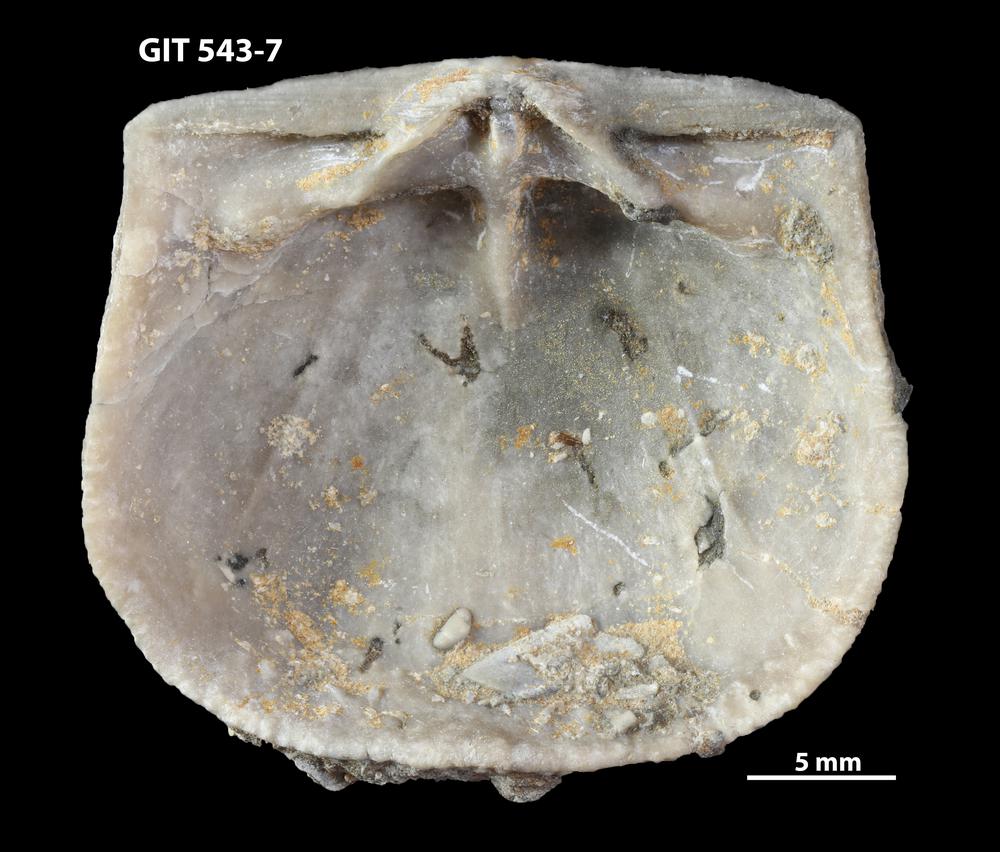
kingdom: Animalia
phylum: Brachiopoda
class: Rhynchonellata
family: Clitambonitidae
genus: Clitambonites
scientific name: Clitambonites
